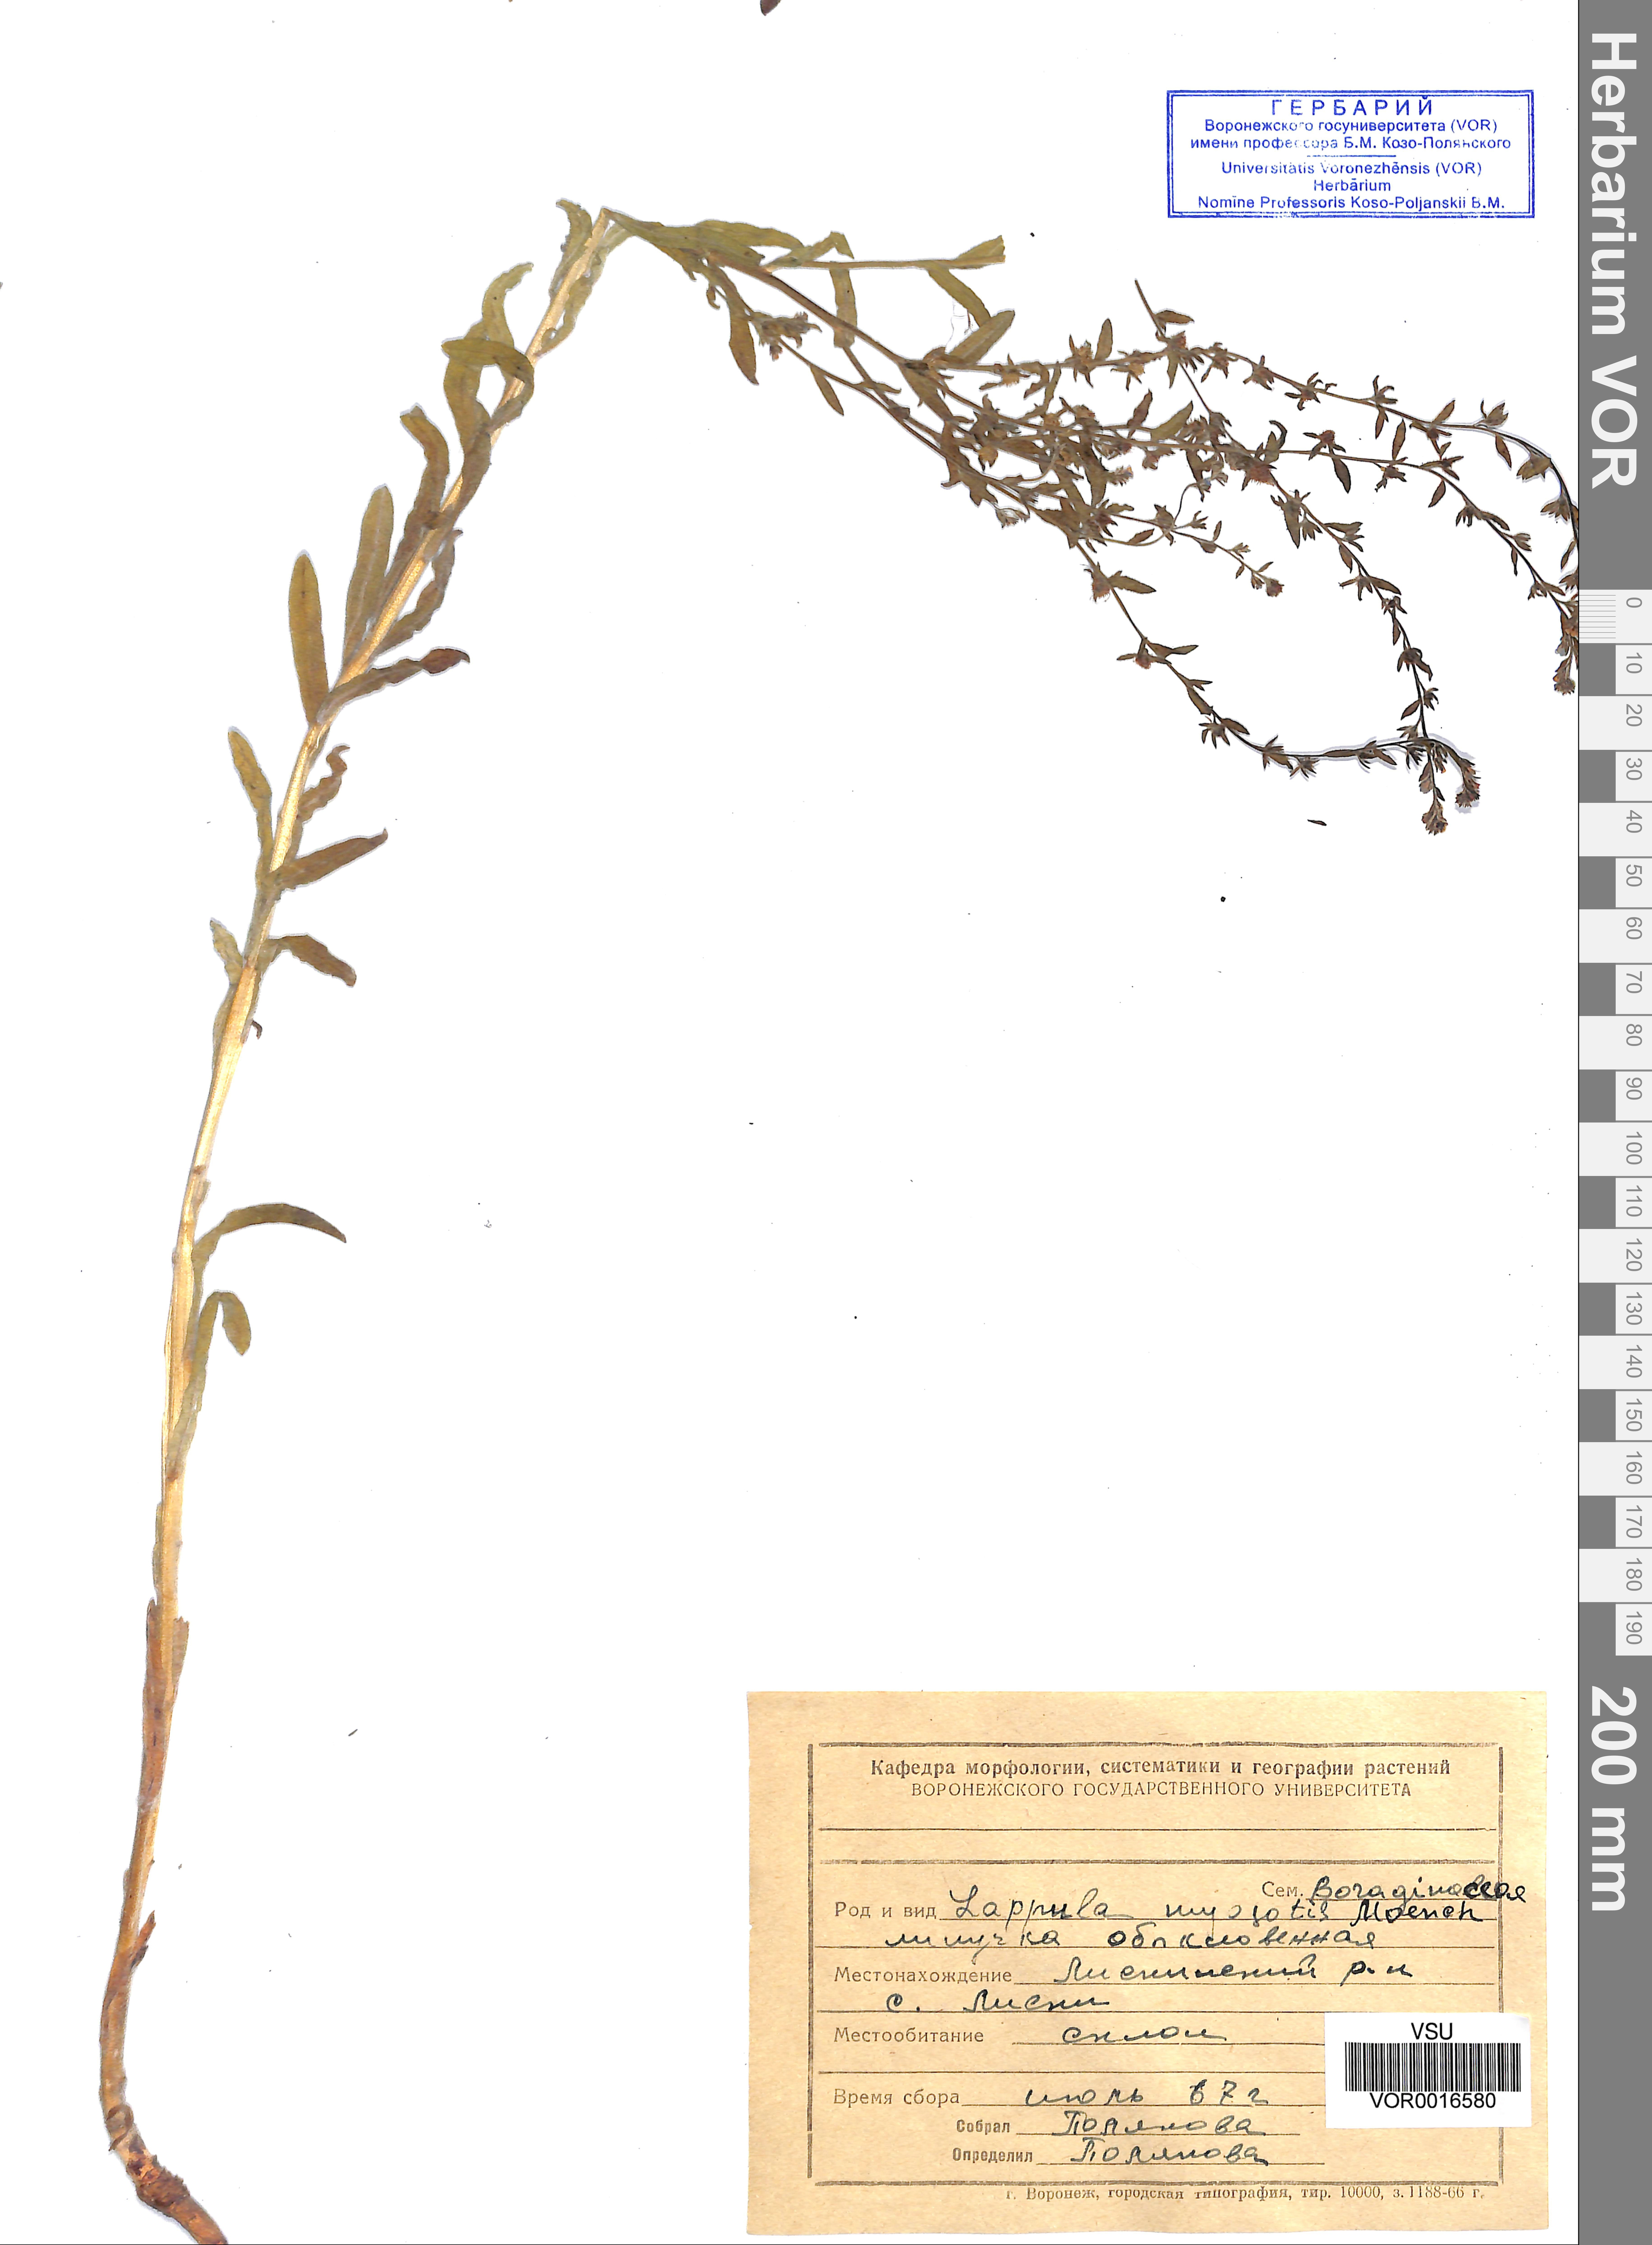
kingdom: Plantae
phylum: Tracheophyta
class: Magnoliopsida
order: Boraginales
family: Boraginaceae
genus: Lappula
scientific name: Lappula squarrosa
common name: European stickseed
